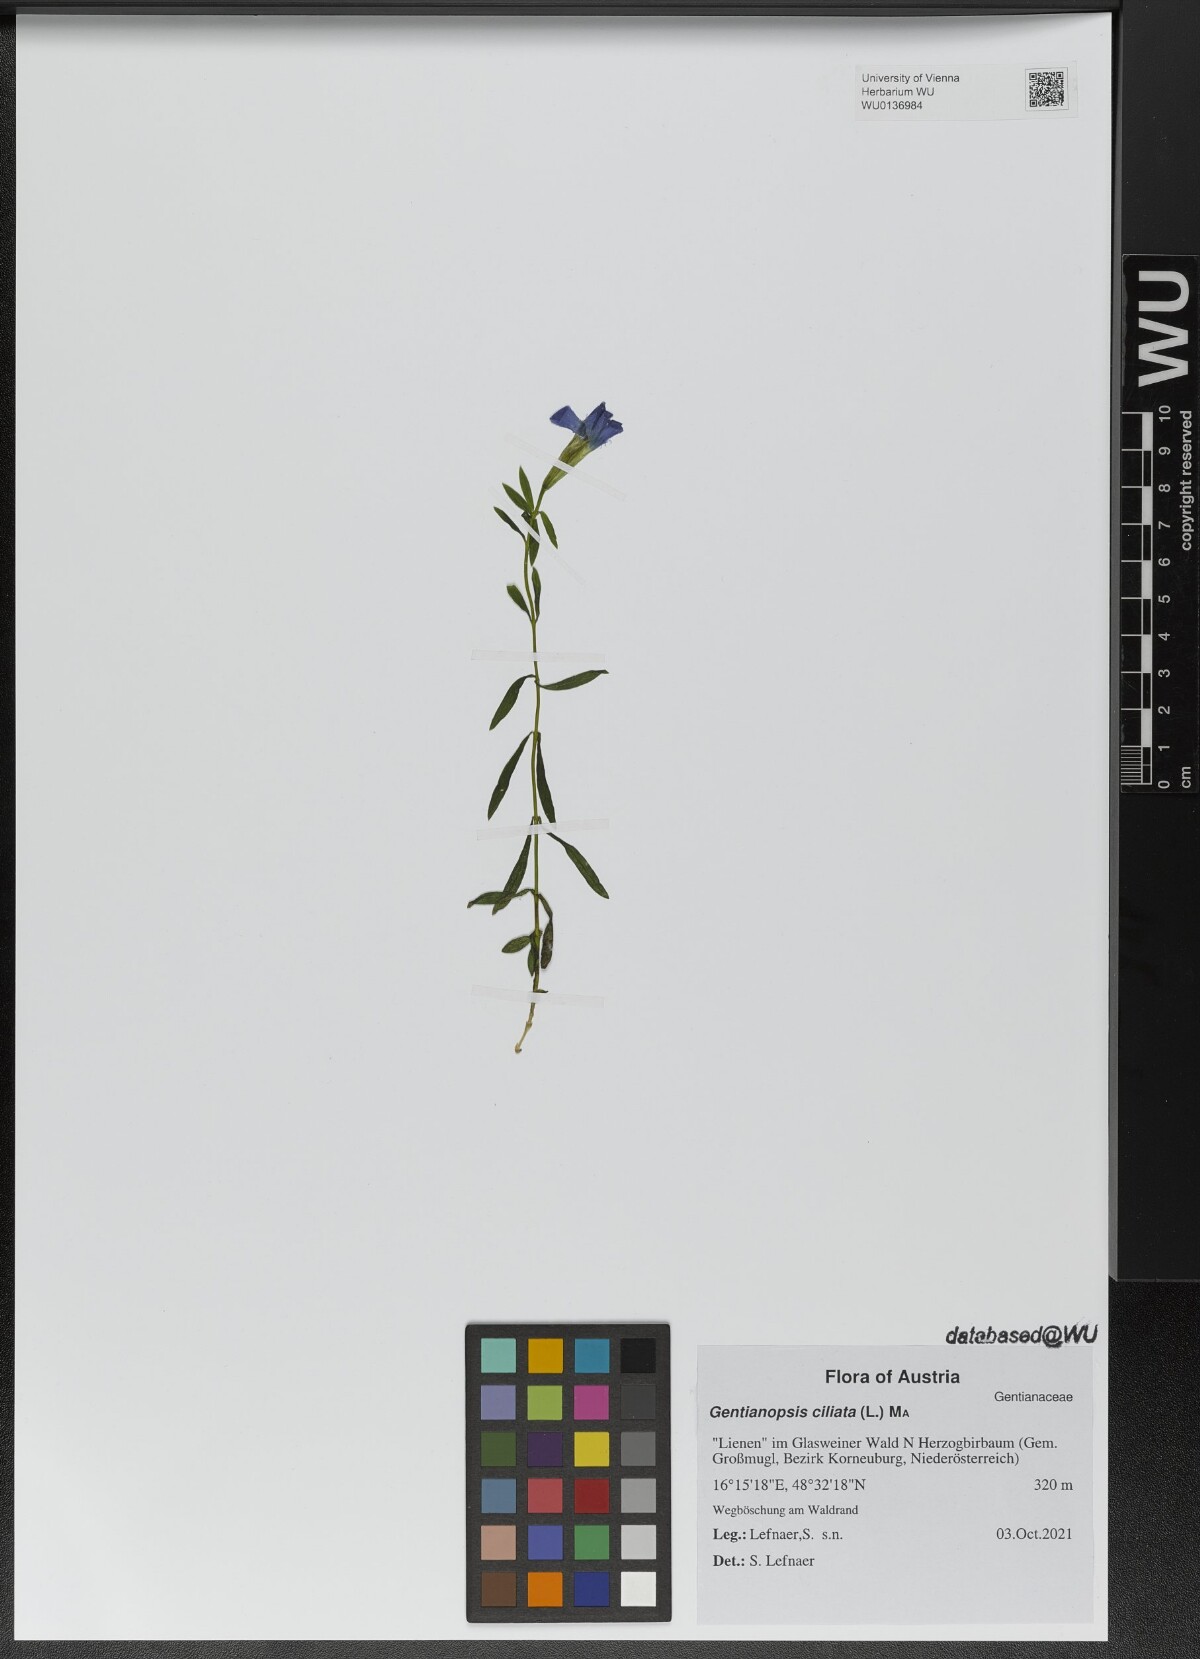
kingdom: Plantae
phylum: Tracheophyta
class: Magnoliopsida
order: Gentianales
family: Gentianaceae
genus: Gentianopsis
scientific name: Gentianopsis ciliata
